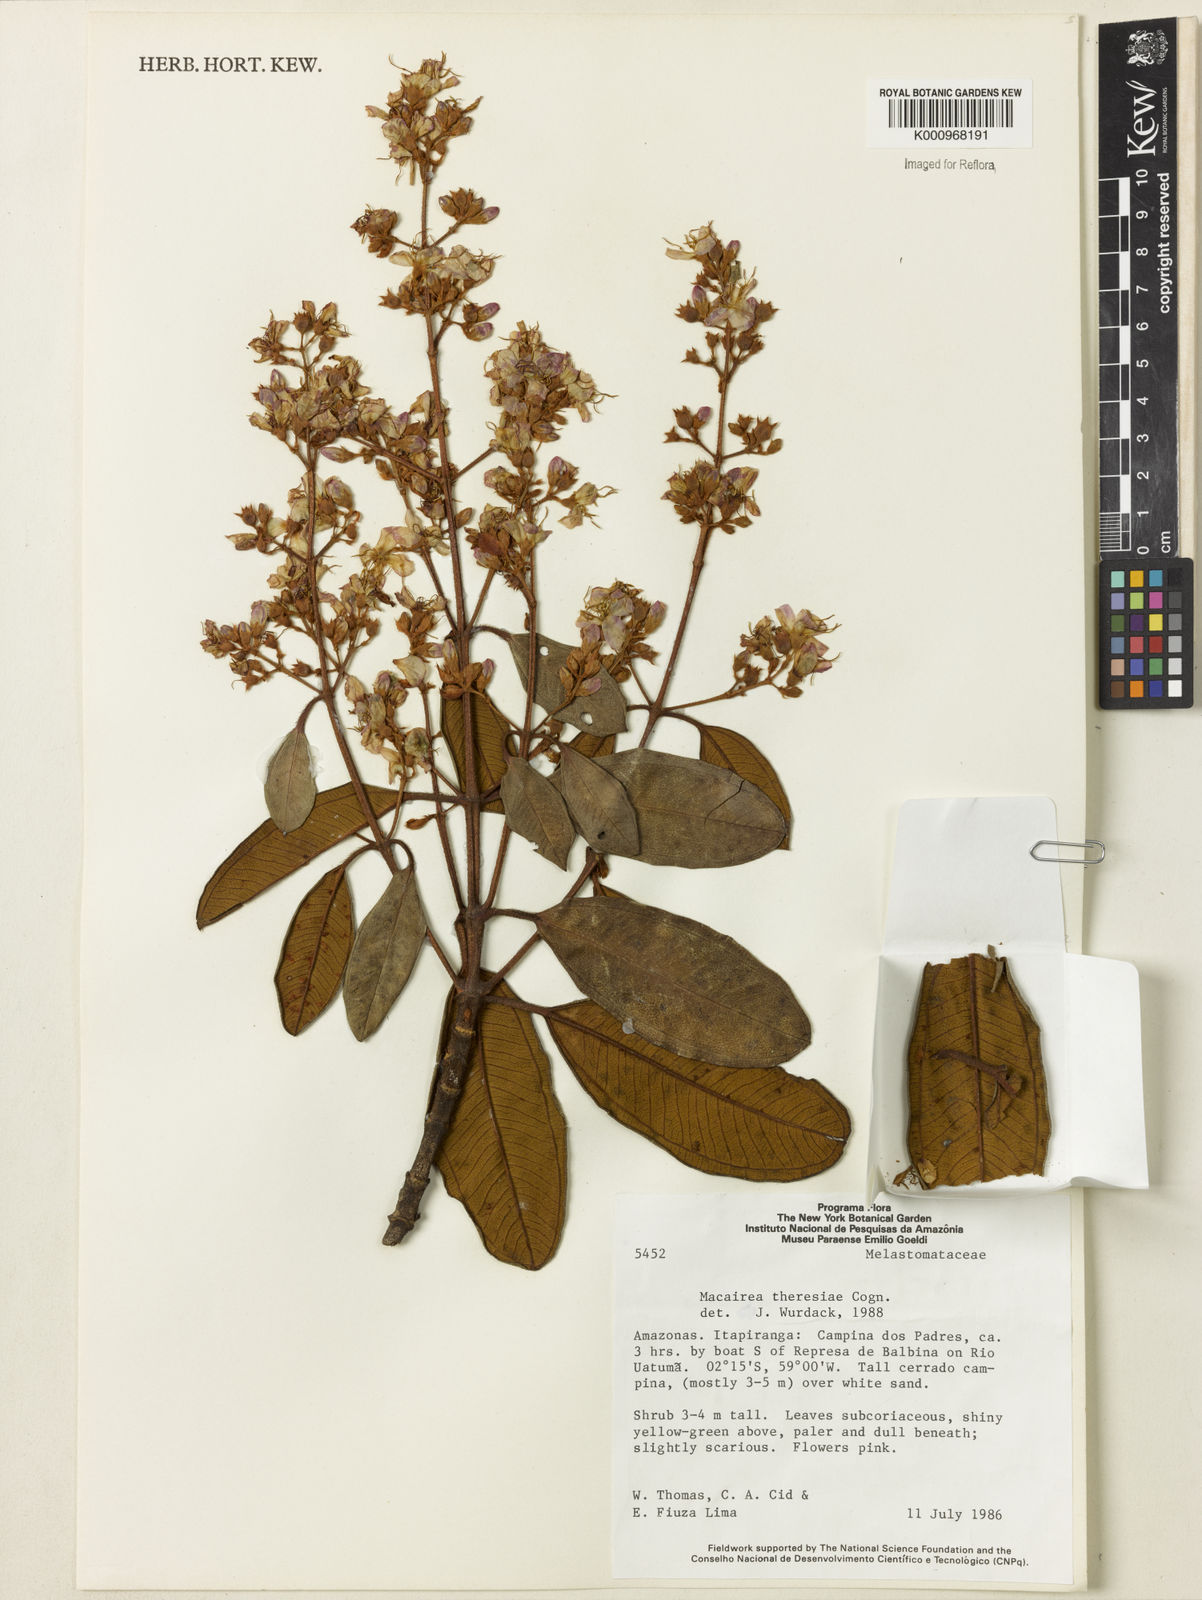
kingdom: Plantae
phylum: Tracheophyta
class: Magnoliopsida
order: Myrtales
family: Melastomataceae
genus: Macairea
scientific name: Macairea theresiae
